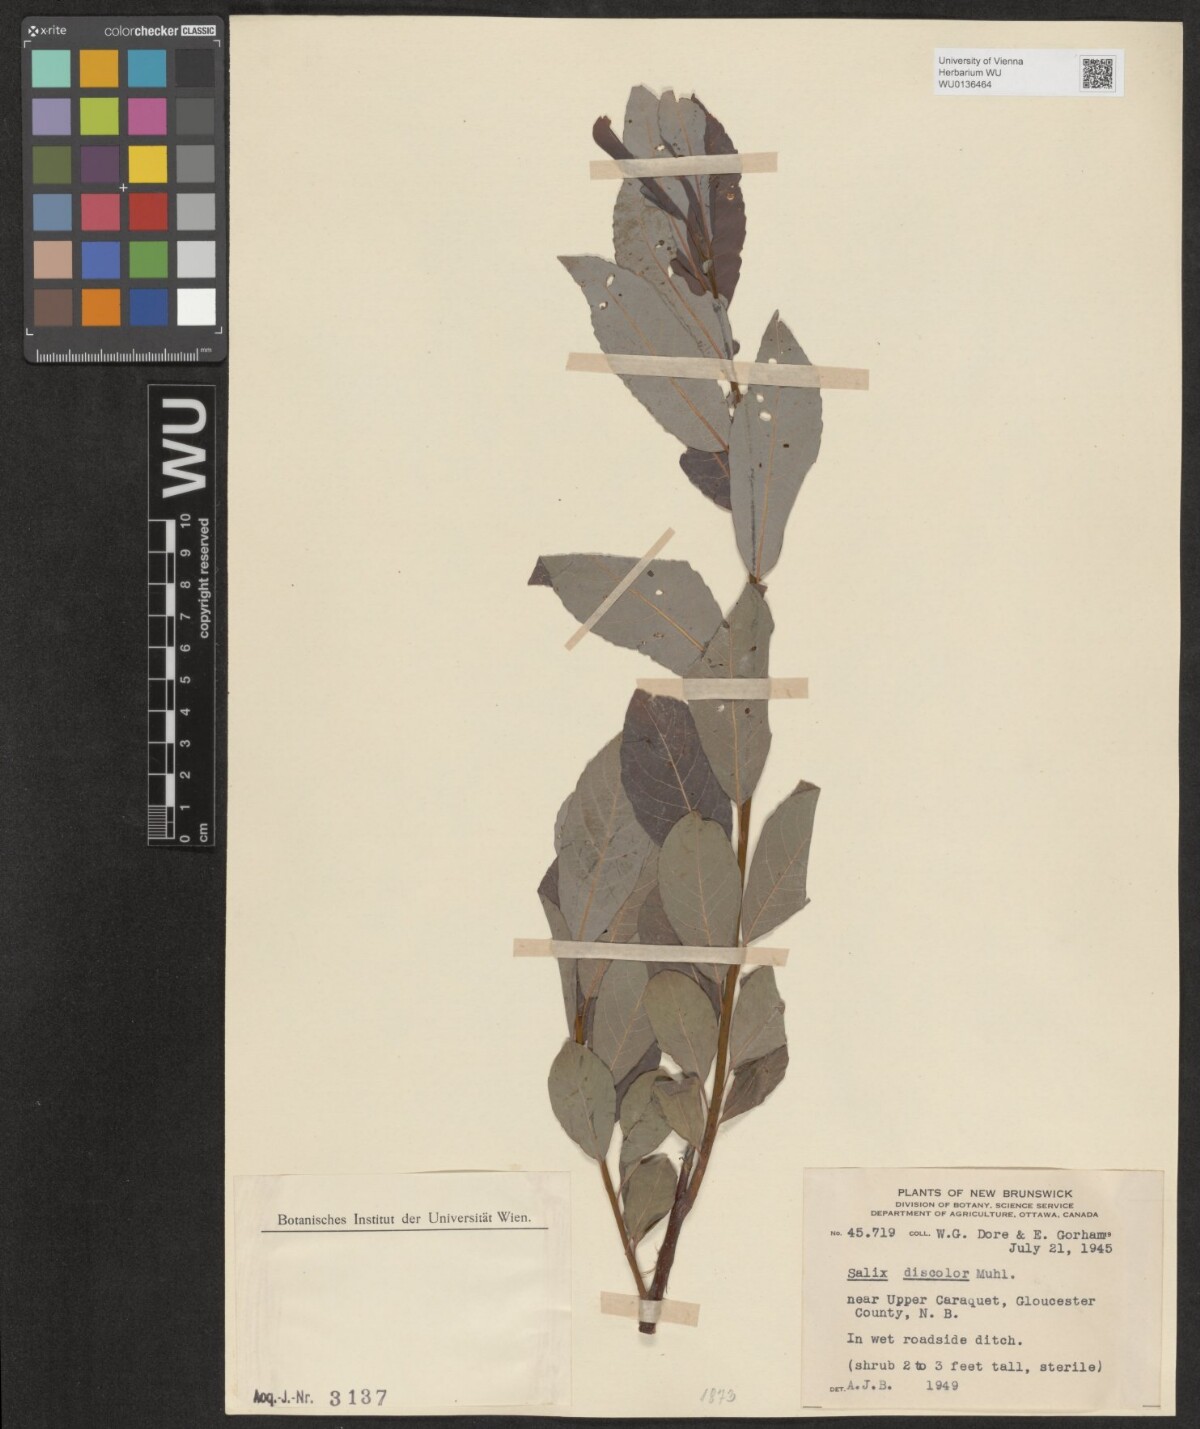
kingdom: Plantae
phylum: Tracheophyta
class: Magnoliopsida
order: Malpighiales
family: Salicaceae
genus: Salix
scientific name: Salix discolor
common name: Glaucous willow
